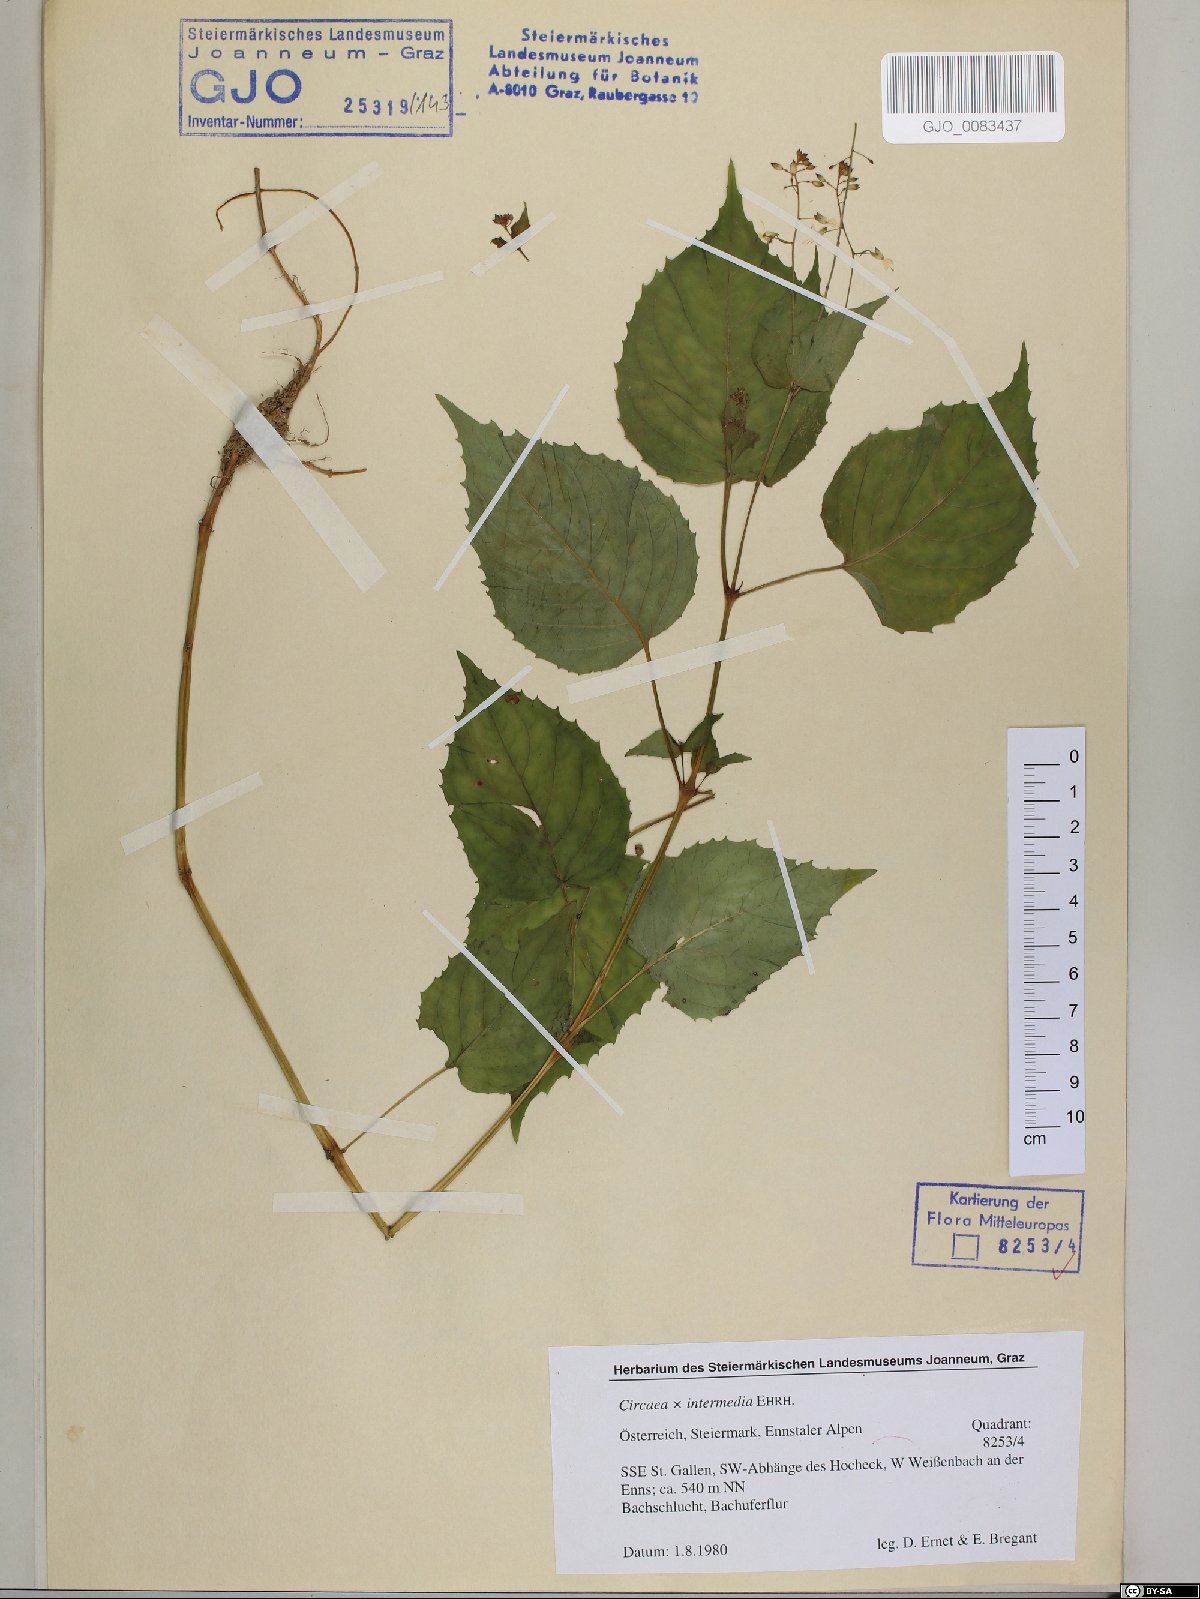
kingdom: Plantae
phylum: Tracheophyta
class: Magnoliopsida
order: Myrtales
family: Onagraceae
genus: Circaea
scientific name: Circaea intermedia
